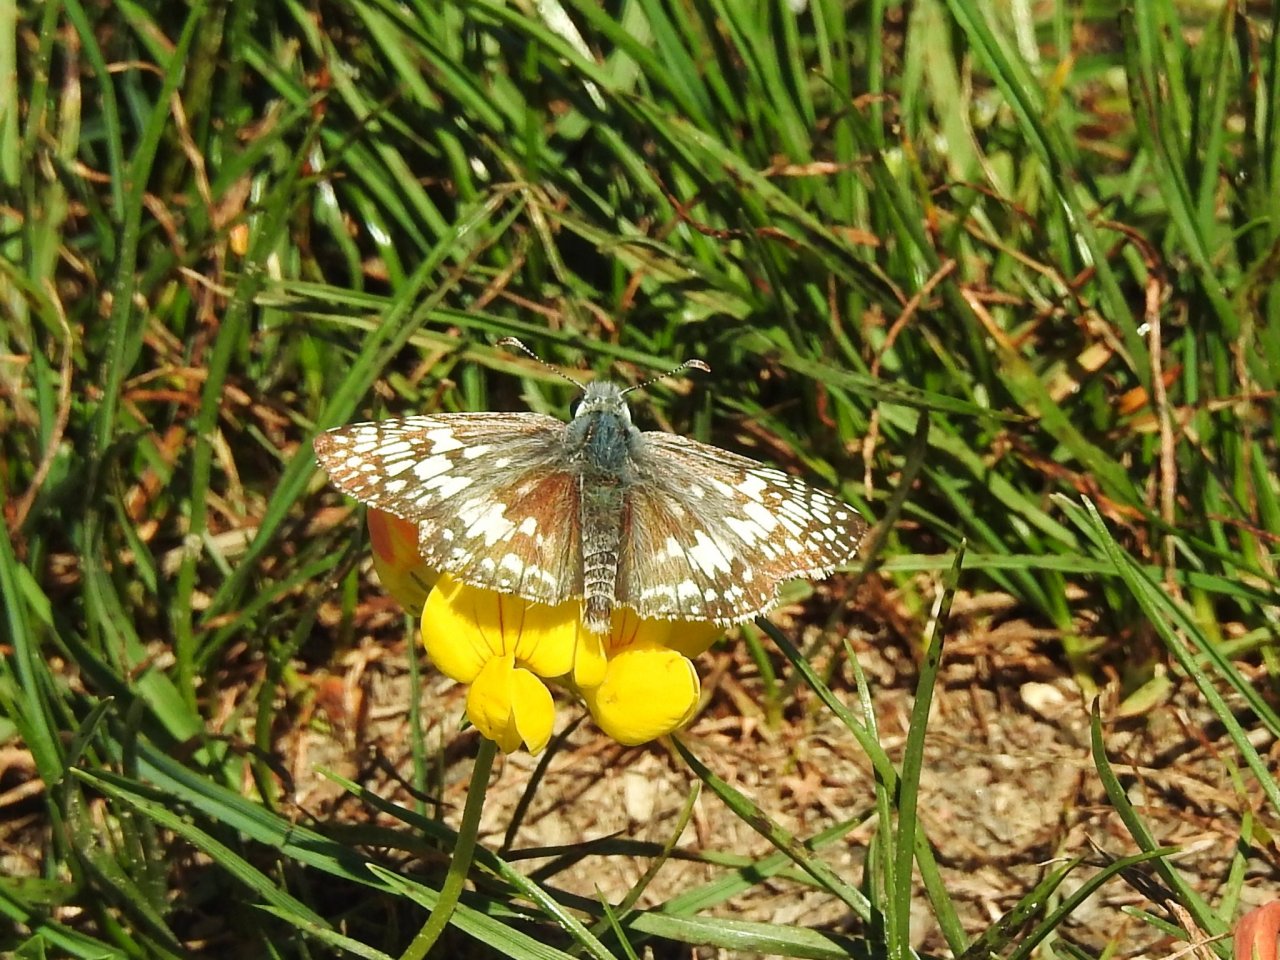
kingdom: Animalia
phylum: Arthropoda
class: Insecta
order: Lepidoptera
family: Hesperiidae
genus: Pyrgus
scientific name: Pyrgus communis
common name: Common Checkered-Skipper
